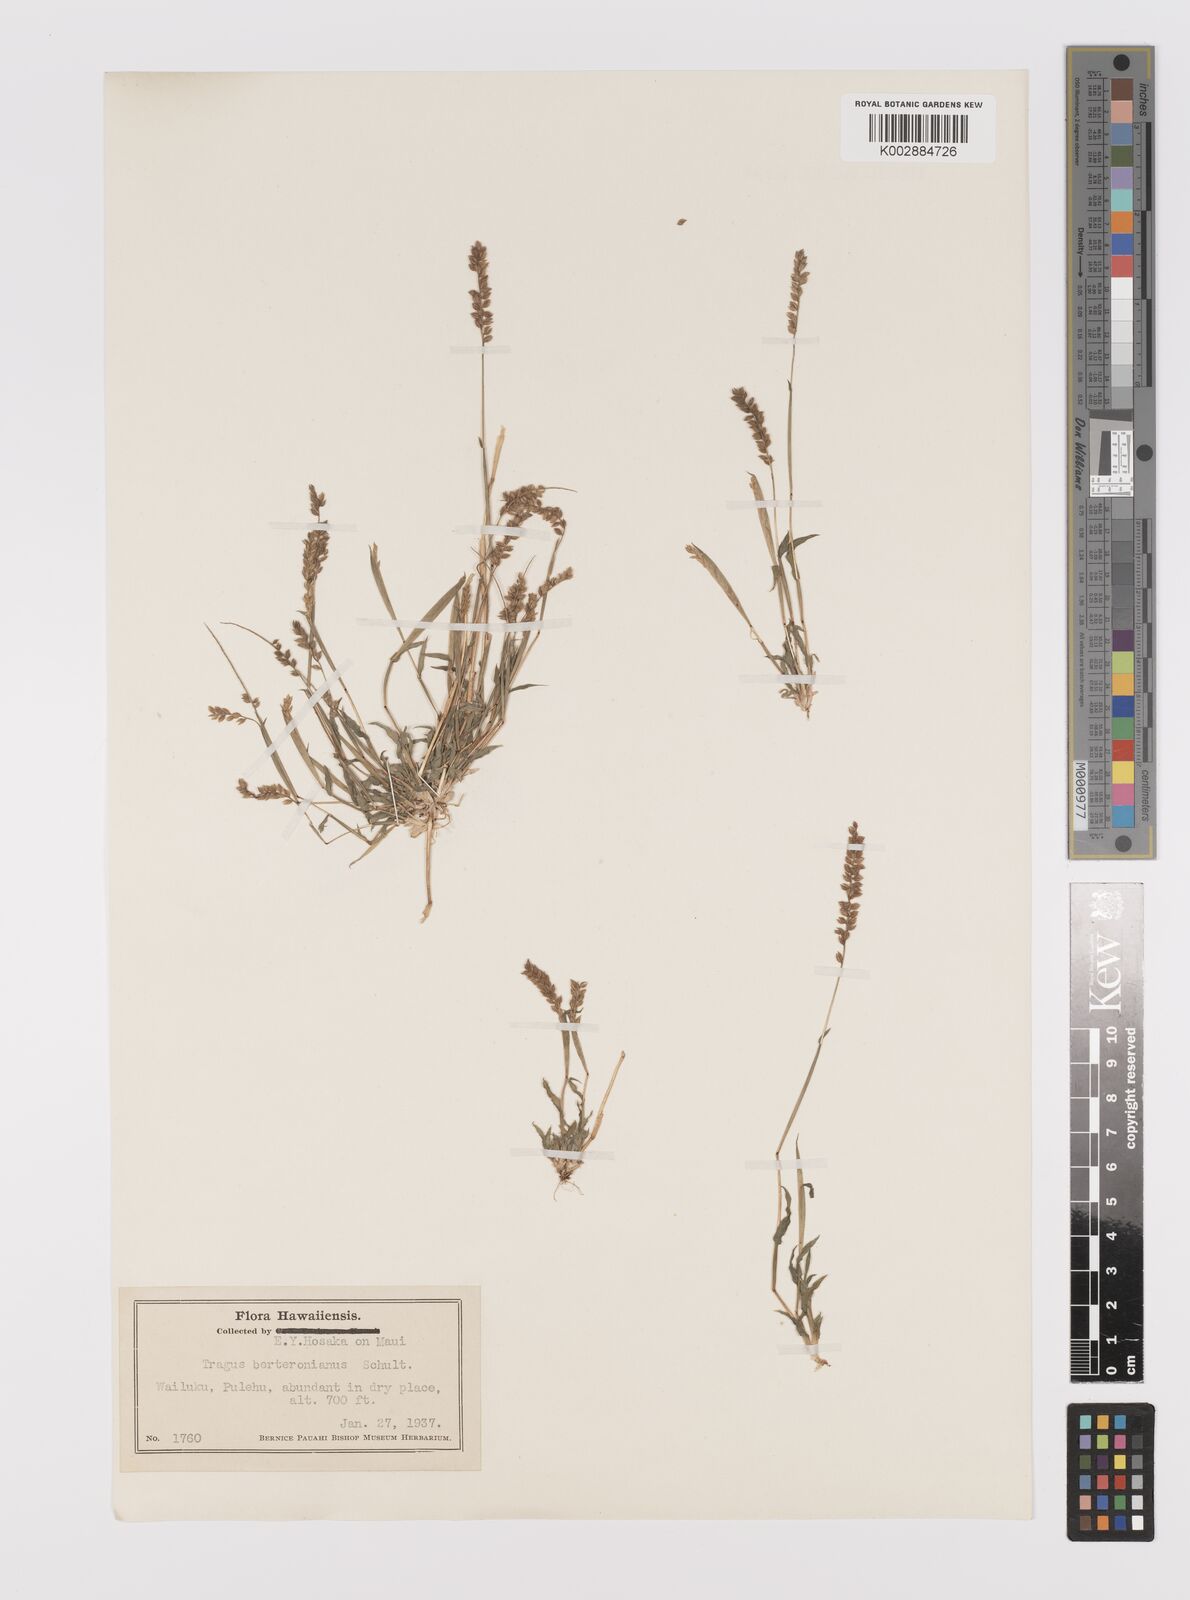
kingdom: Plantae
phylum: Tracheophyta
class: Liliopsida
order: Poales
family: Poaceae
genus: Tragus
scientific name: Tragus berteronianus
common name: African bur-grass
